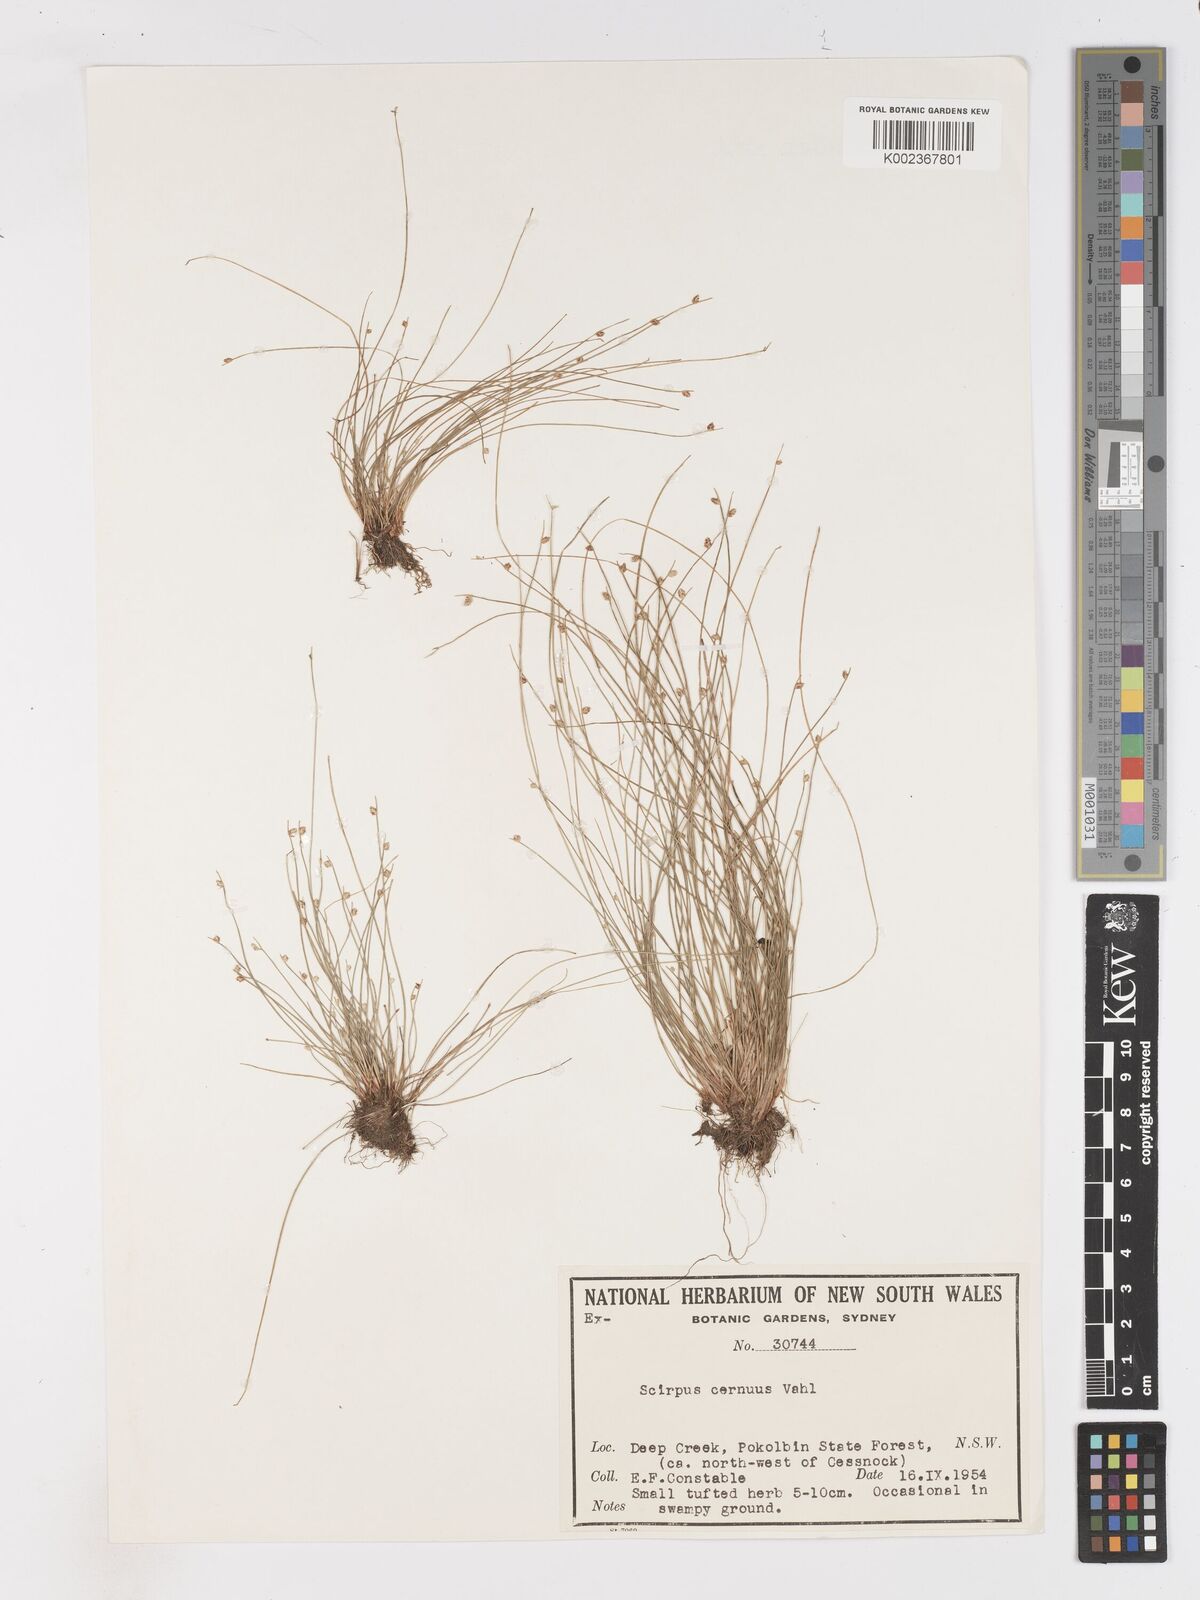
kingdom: Plantae
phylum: Tracheophyta
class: Liliopsida
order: Poales
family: Cyperaceae
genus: Isolepis
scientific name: Isolepis cernua
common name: Slender club-rush
